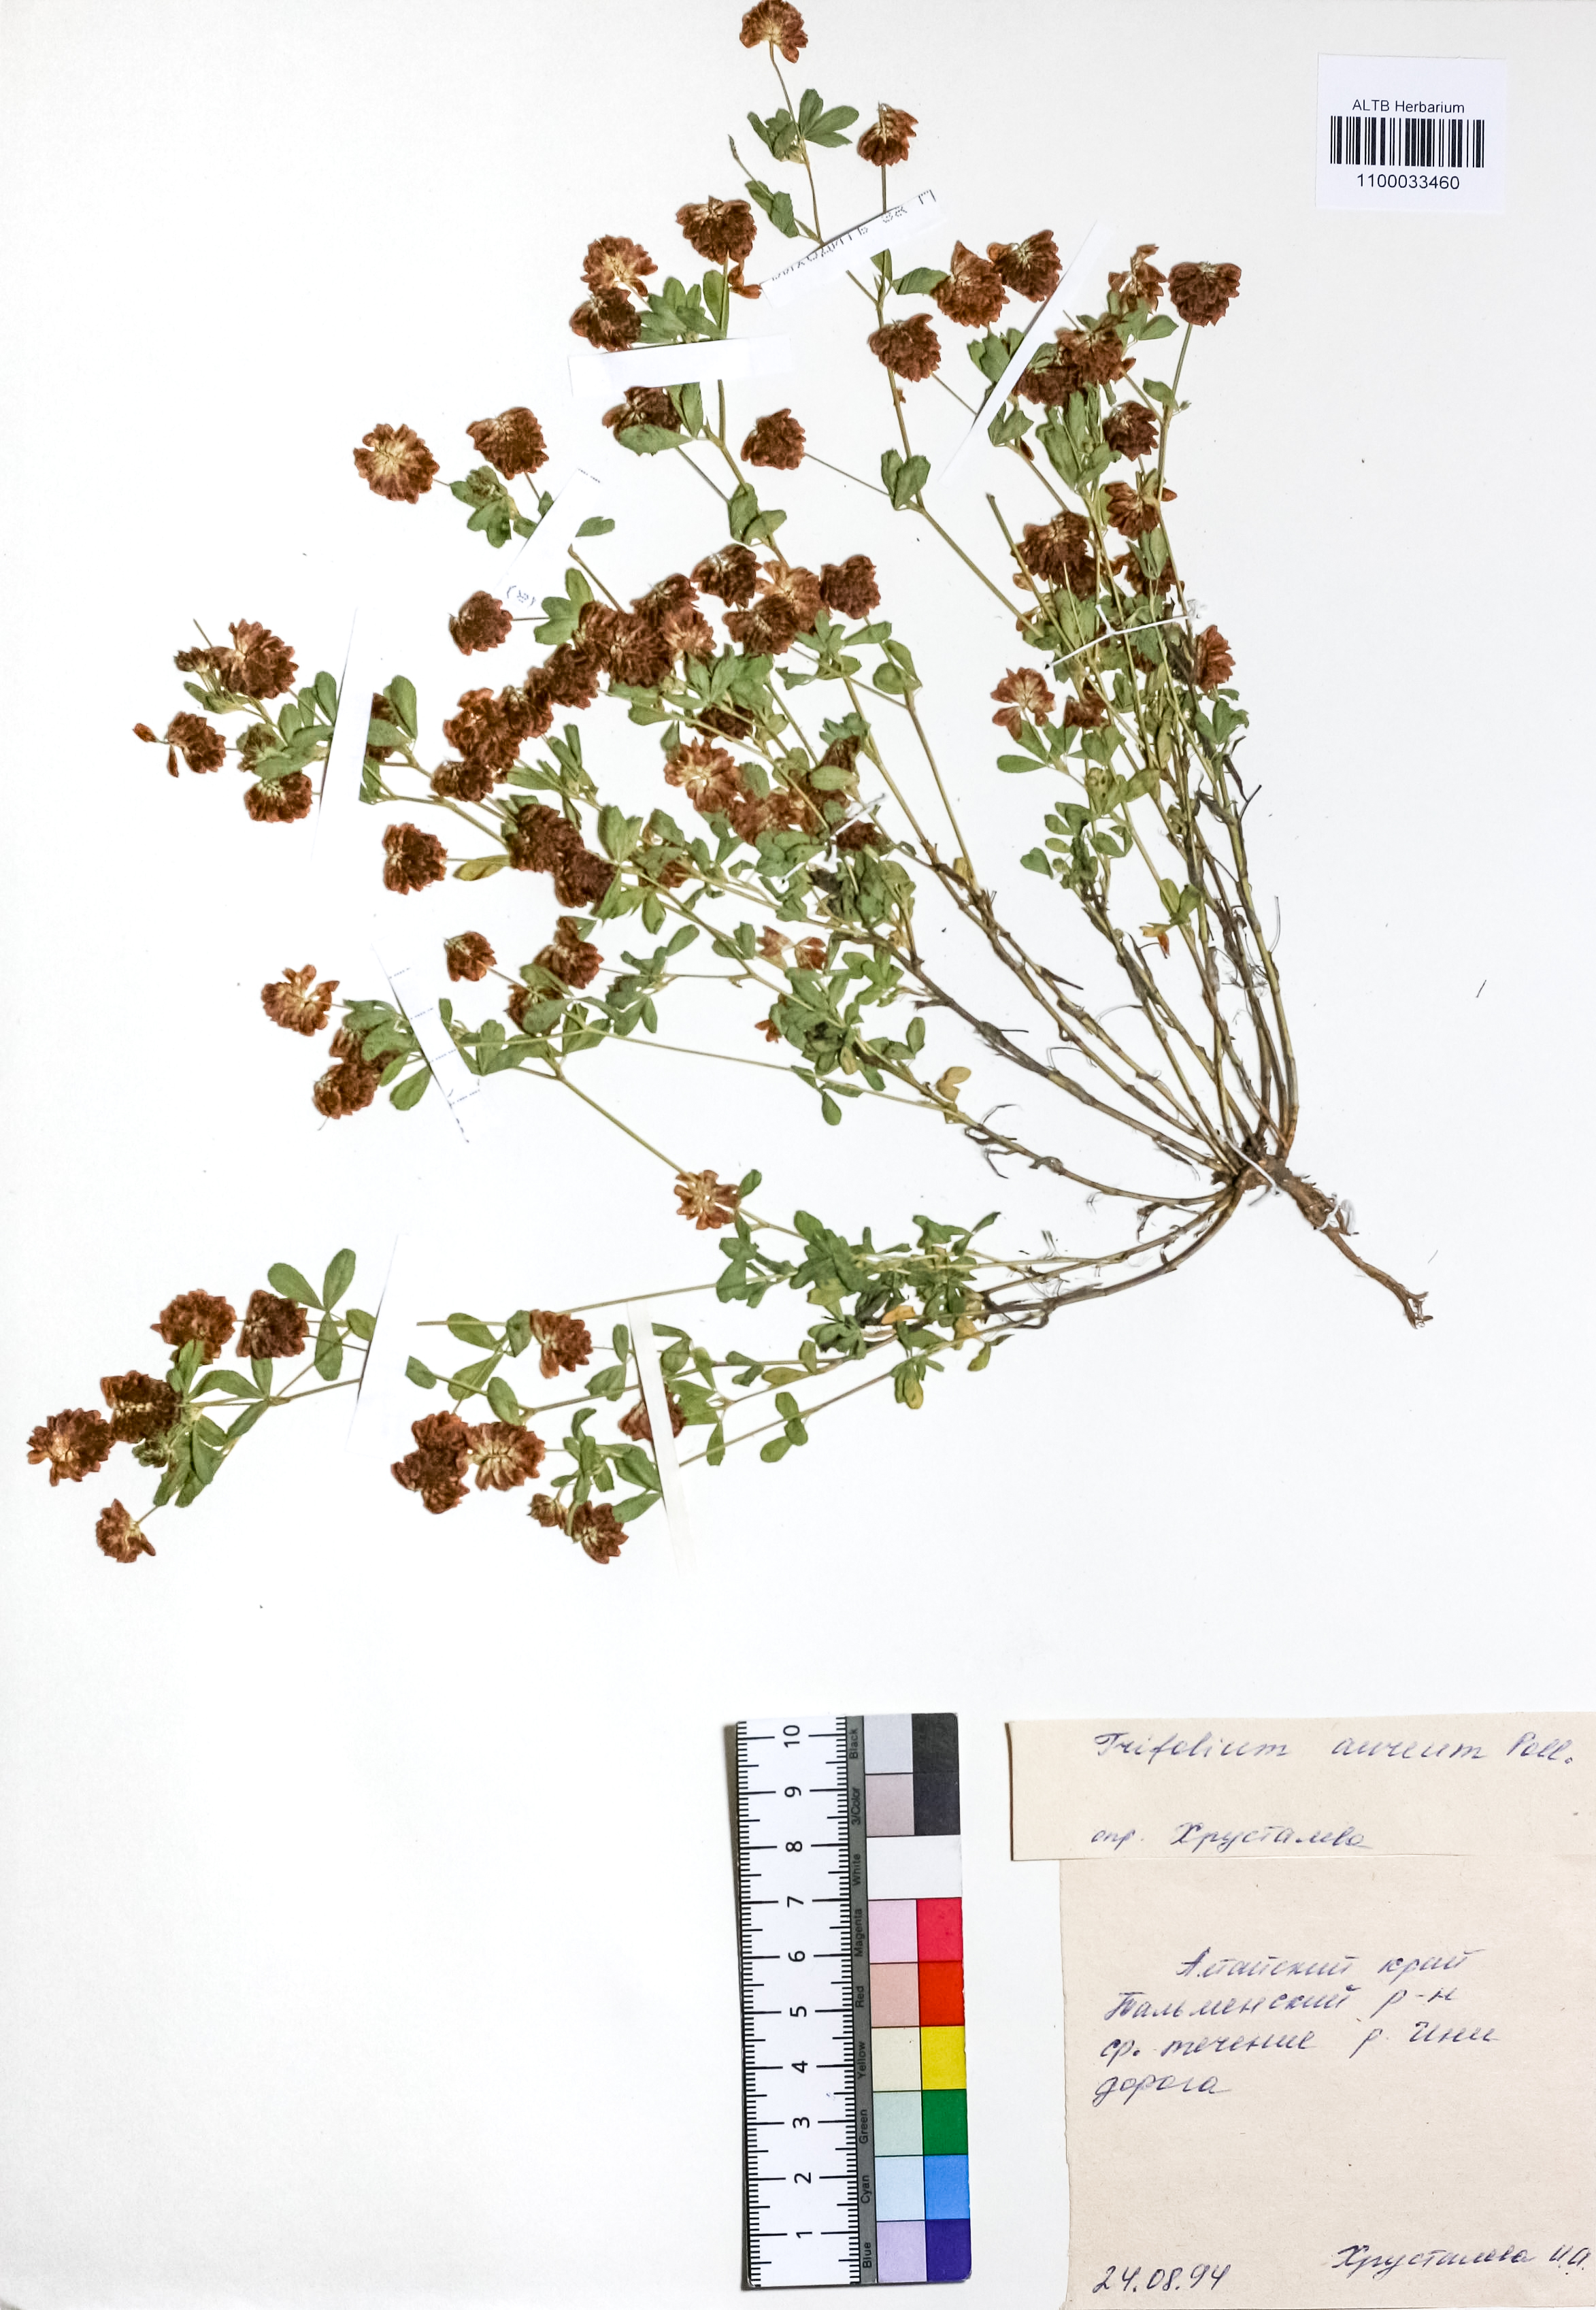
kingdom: Plantae
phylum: Tracheophyta
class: Magnoliopsida
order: Fabales
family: Fabaceae
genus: Trifolium
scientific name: Trifolium aureum
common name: Golden clover
